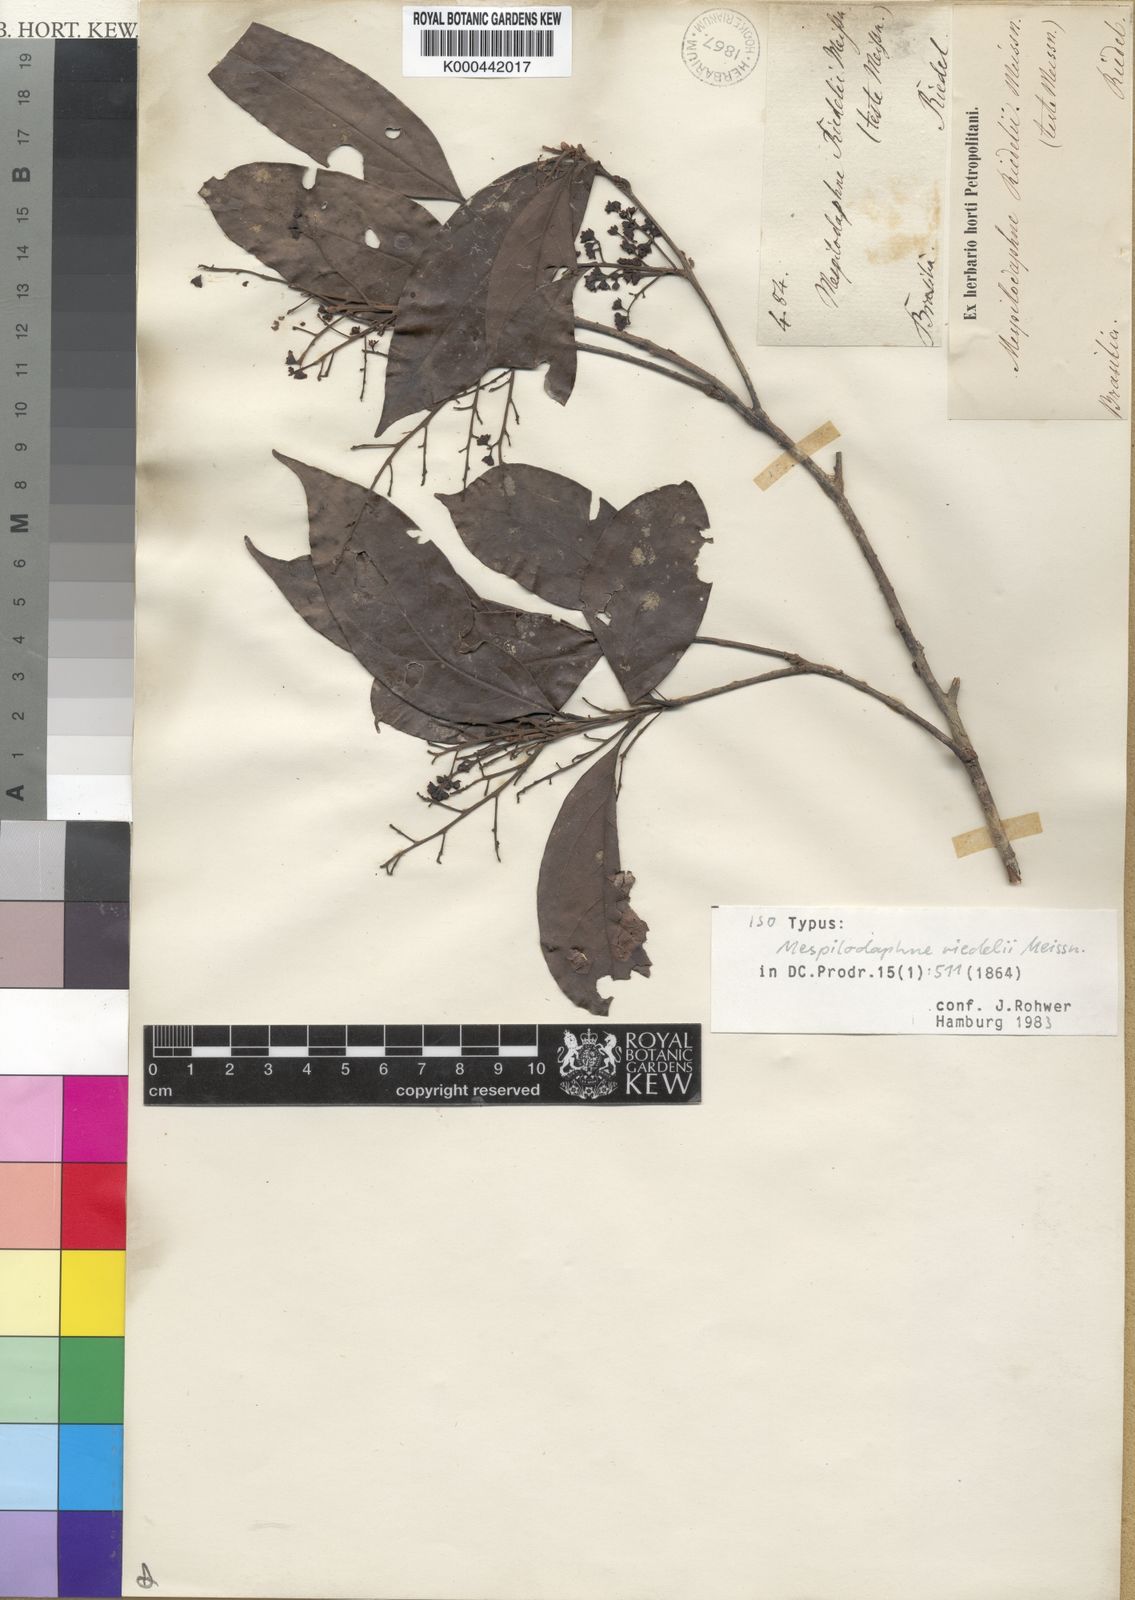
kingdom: Plantae
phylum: Tracheophyta
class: Magnoliopsida
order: Laurales
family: Lauraceae
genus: Ocotea
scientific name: Ocotea dispersa
